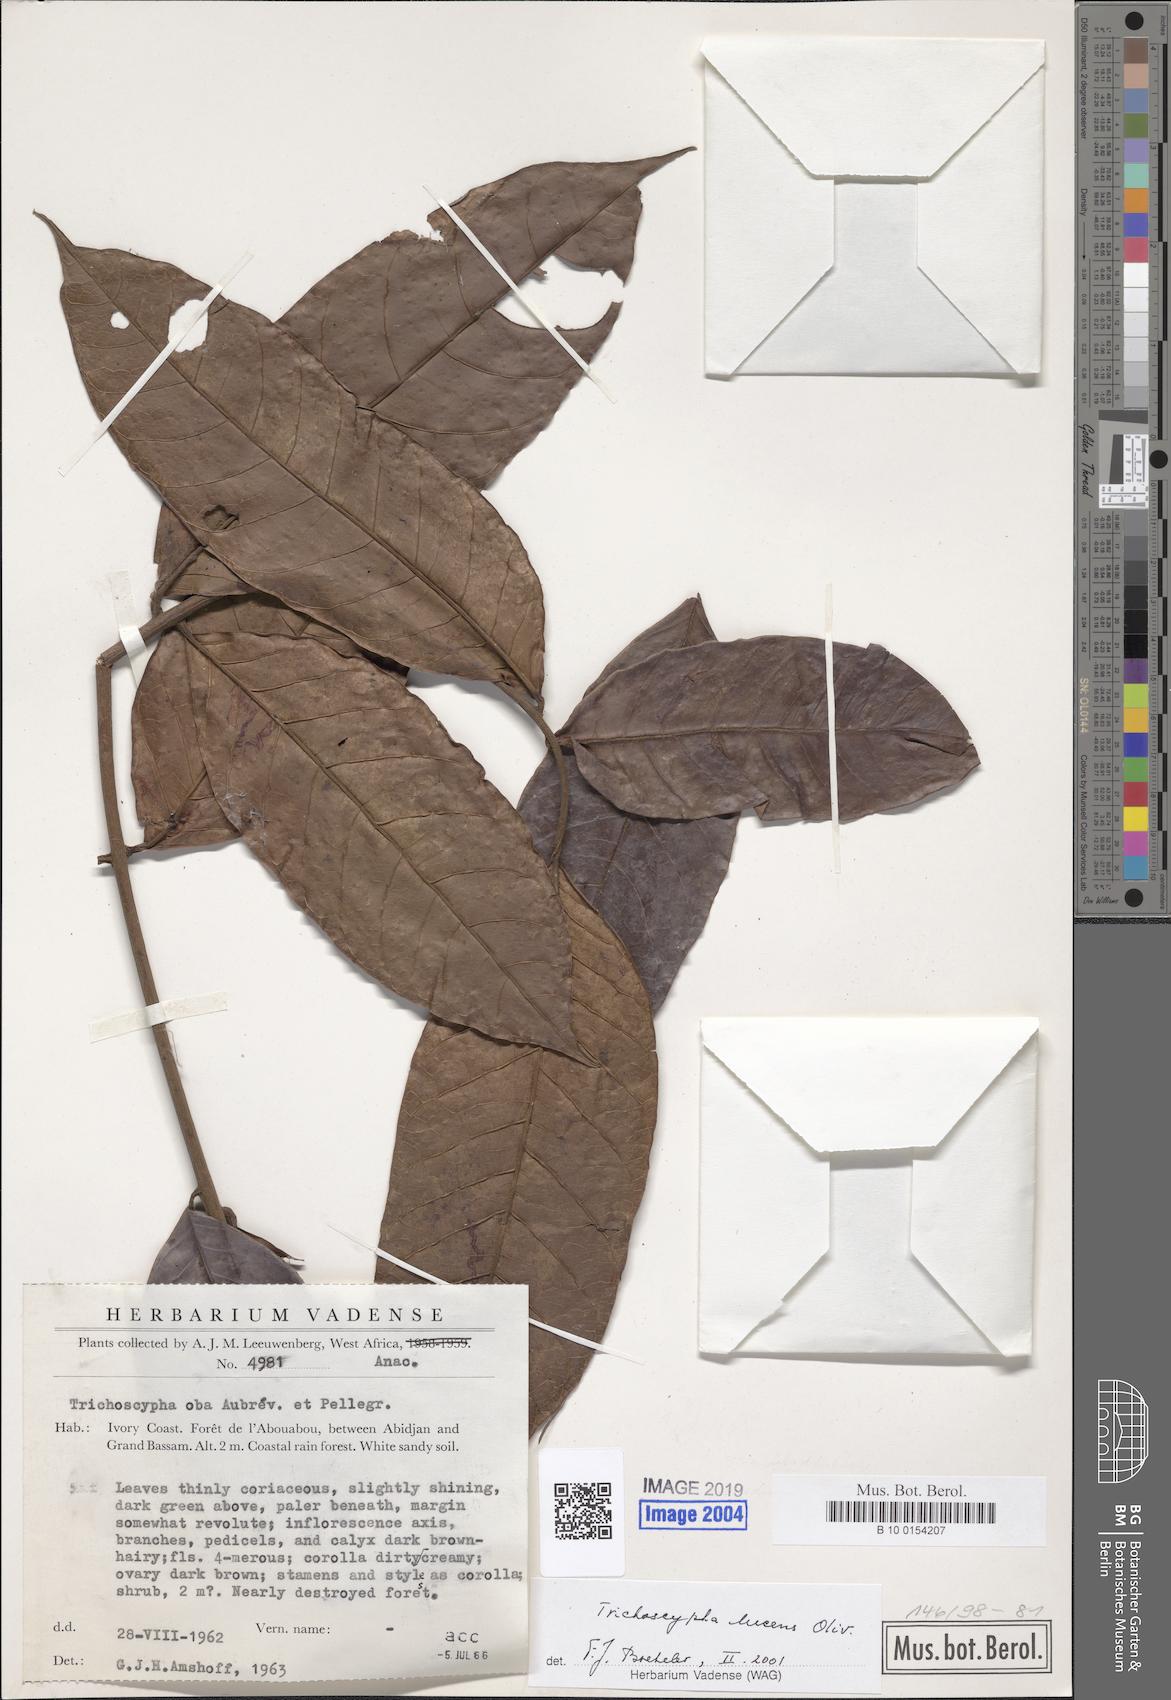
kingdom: Plantae
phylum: Tracheophyta
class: Magnoliopsida
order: Sapindales
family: Anacardiaceae
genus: Trichoscypha
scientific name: Trichoscypha lucens
